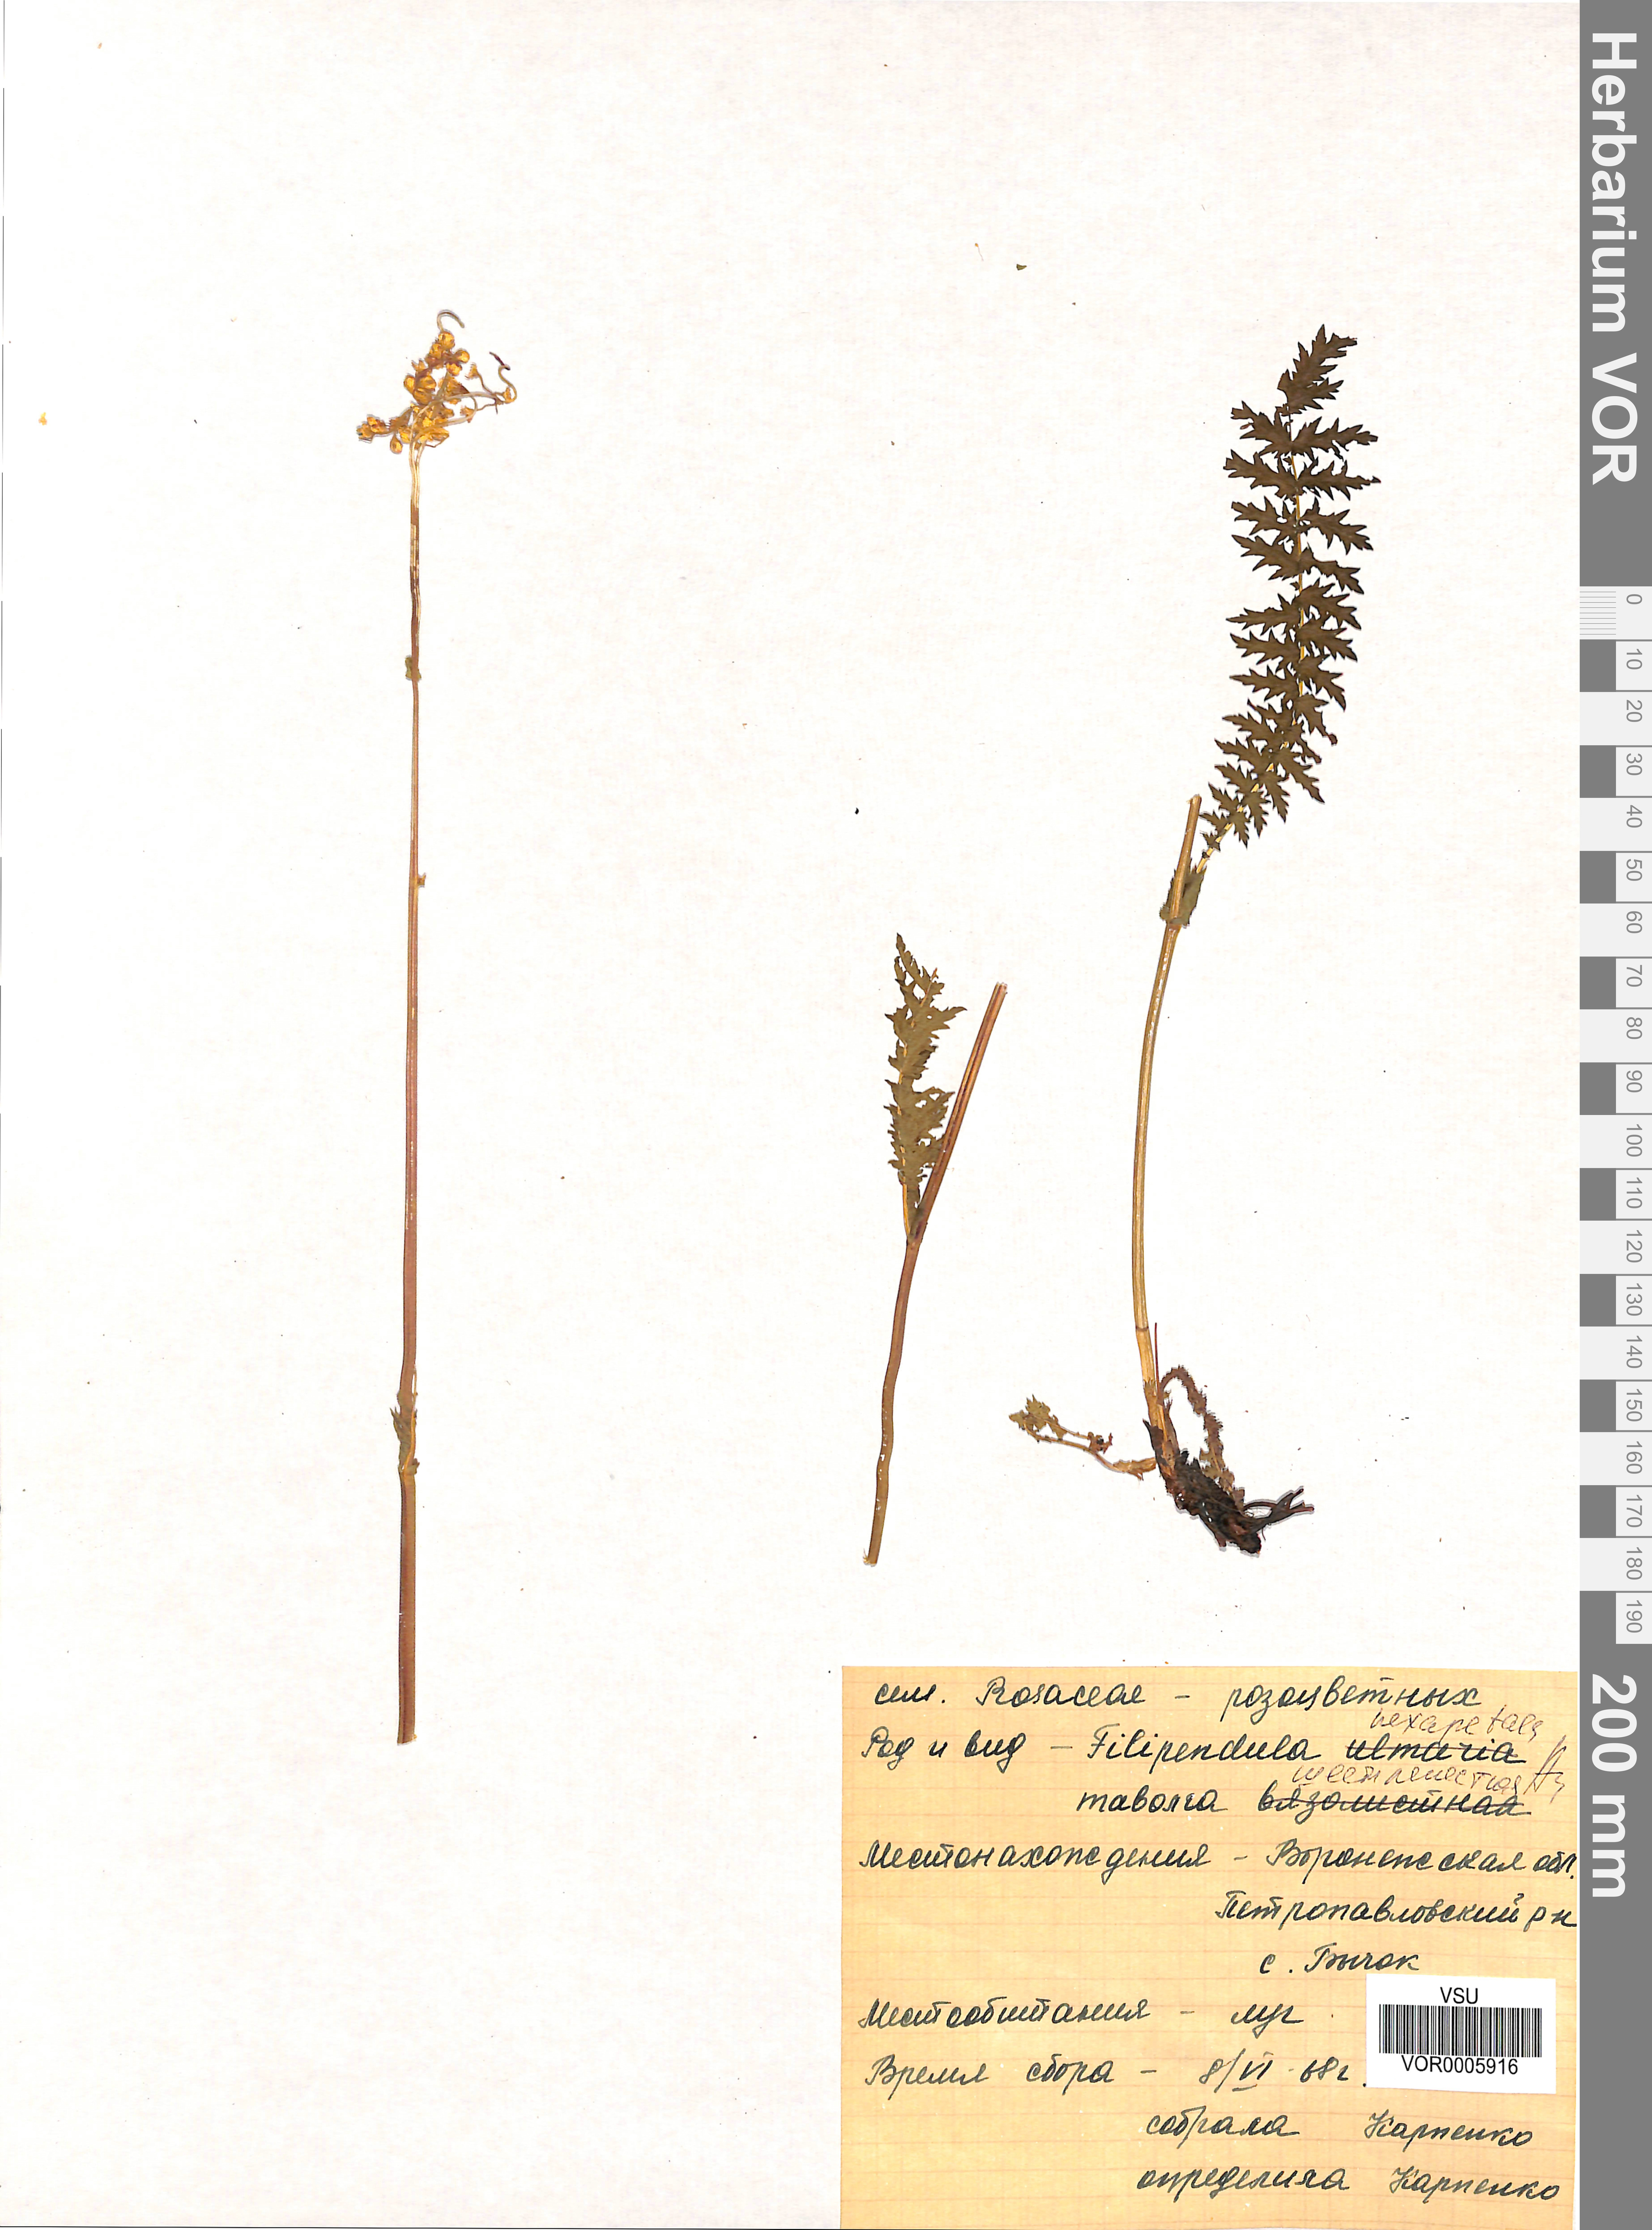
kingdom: Plantae
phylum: Tracheophyta
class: Magnoliopsida
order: Rosales
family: Rosaceae
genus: Filipendula
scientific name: Filipendula vulgaris
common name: Dropwort
